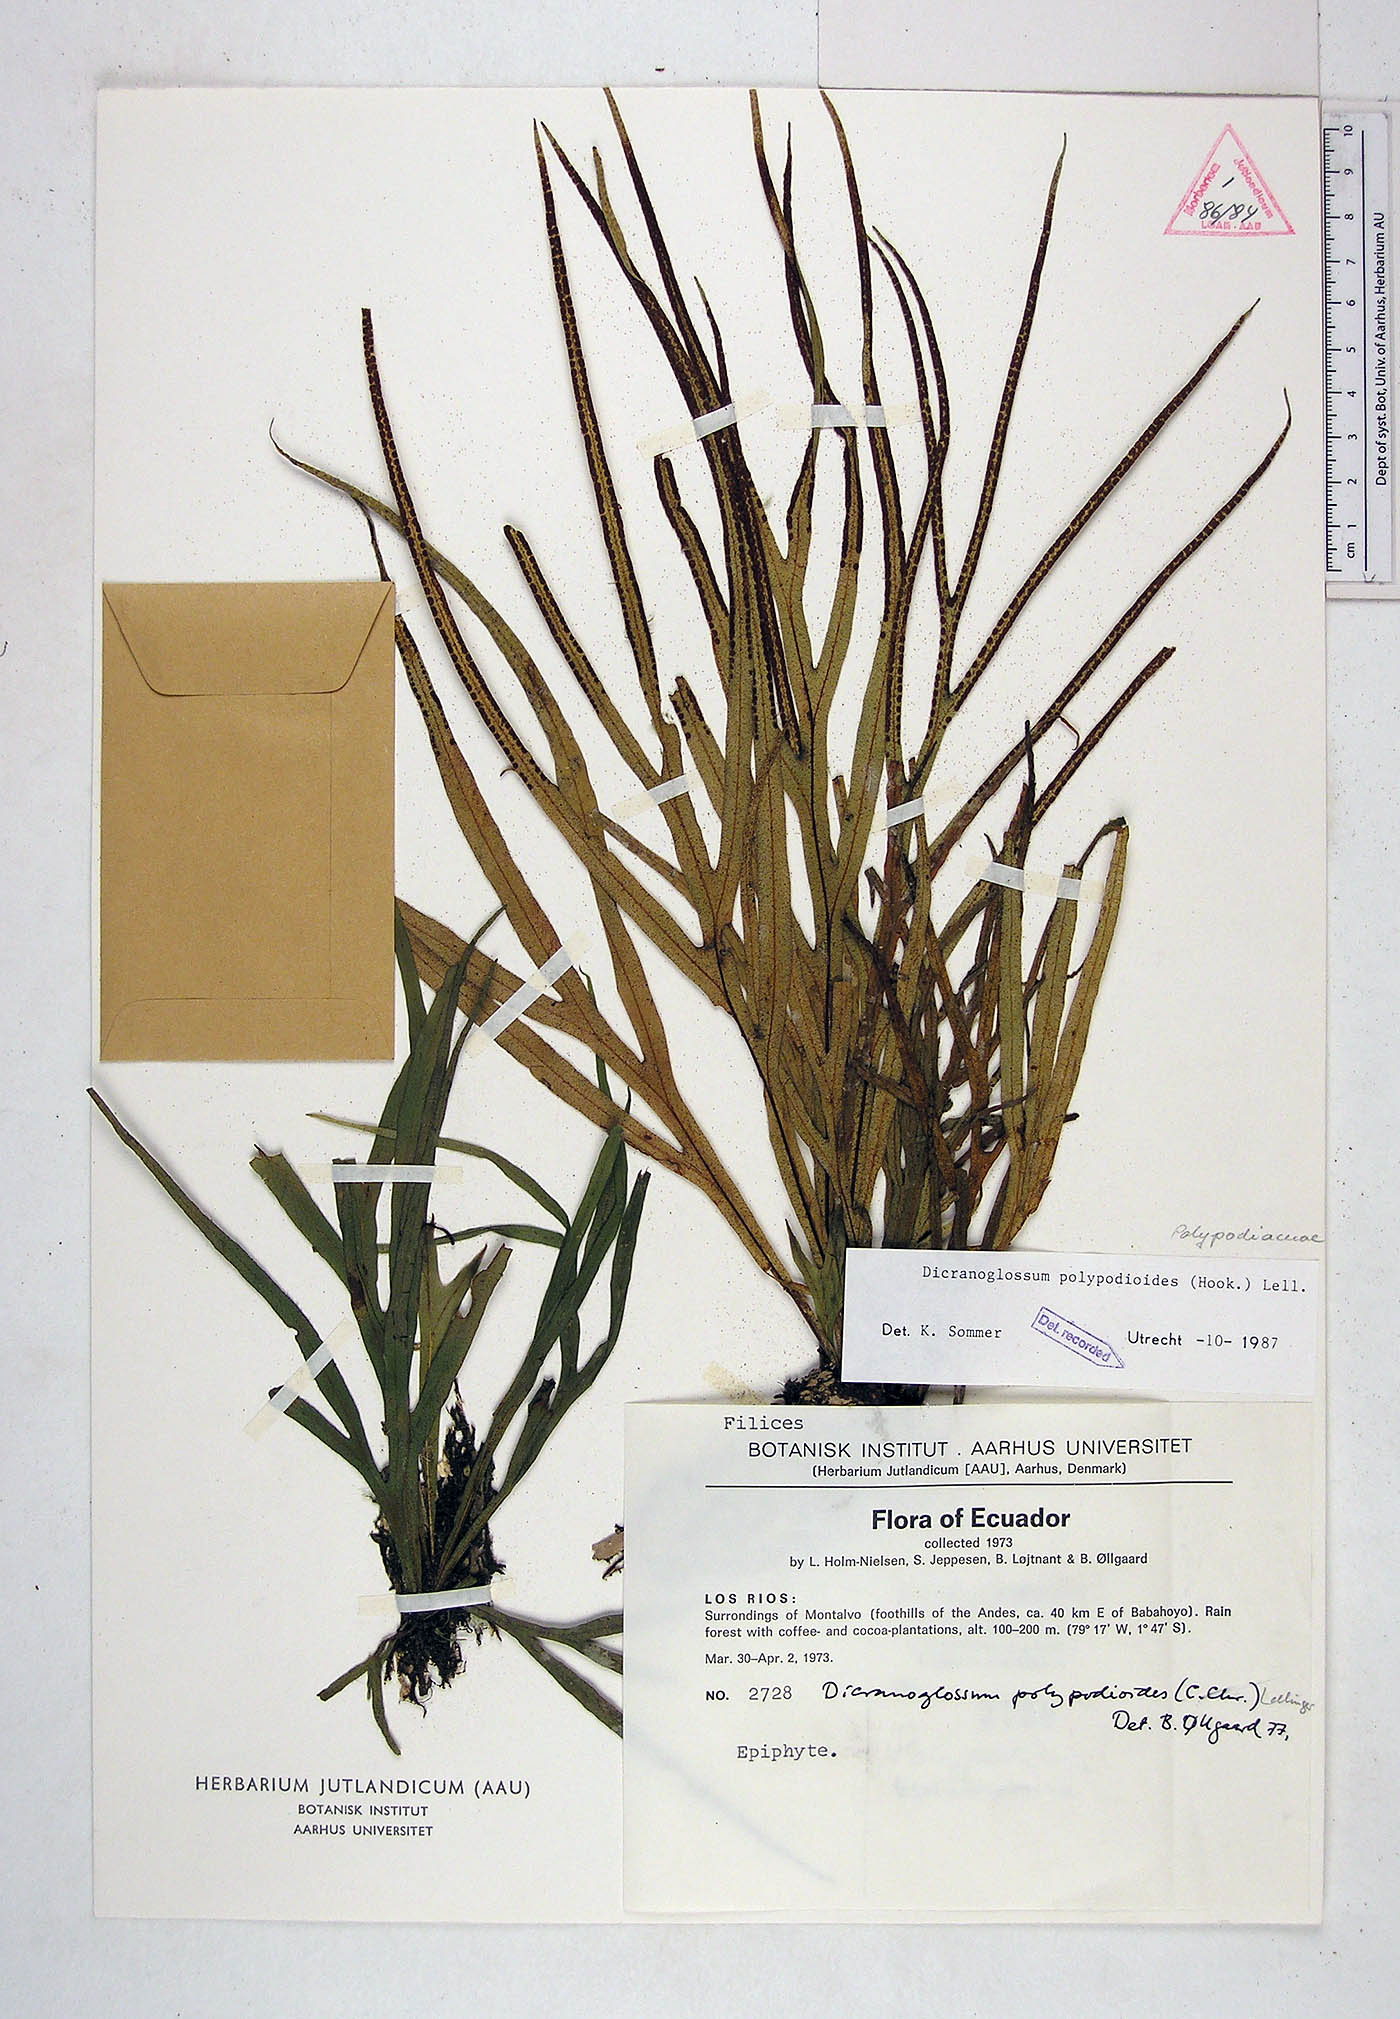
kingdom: Plantae
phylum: Tracheophyta
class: Polypodiopsida
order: Polypodiales
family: Polypodiaceae
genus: Pleopeltis
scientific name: Pleopeltis hookeri
